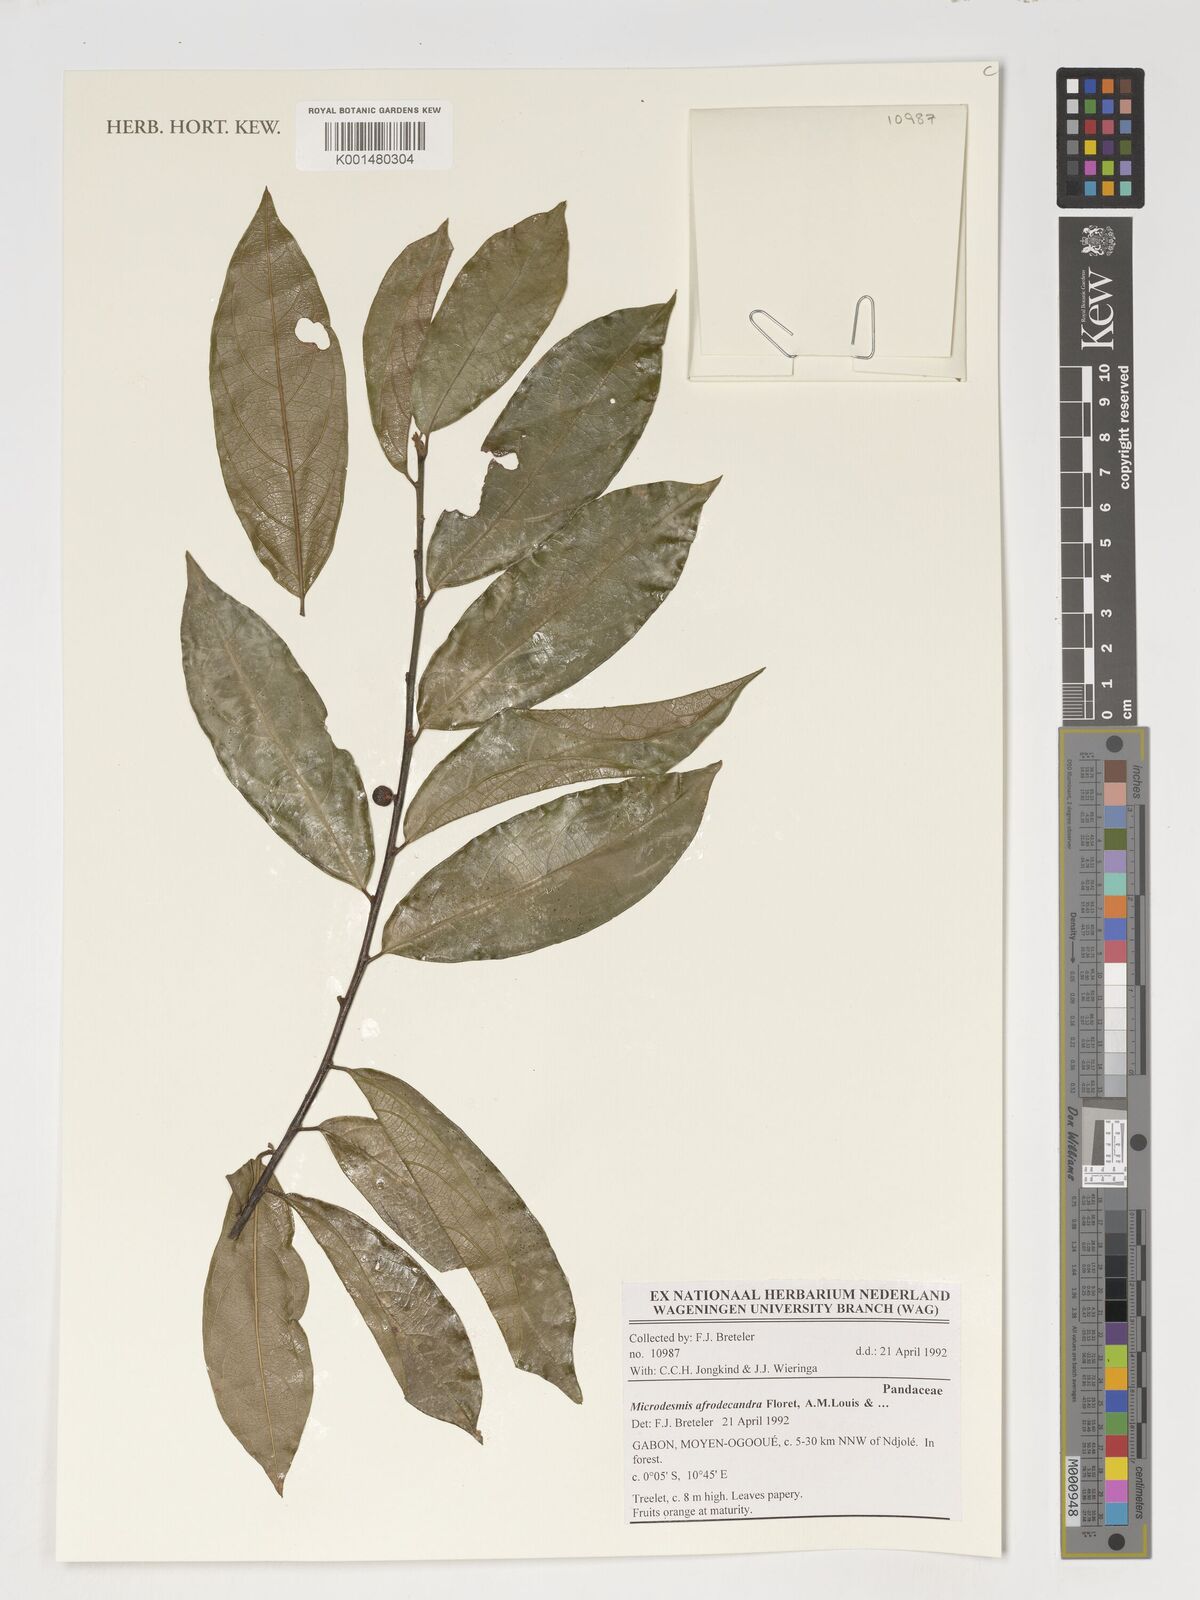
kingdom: Plantae
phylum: Tracheophyta
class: Magnoliopsida
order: Malpighiales
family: Pandaceae
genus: Microdesmis
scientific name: Microdesmis afrodecandra
